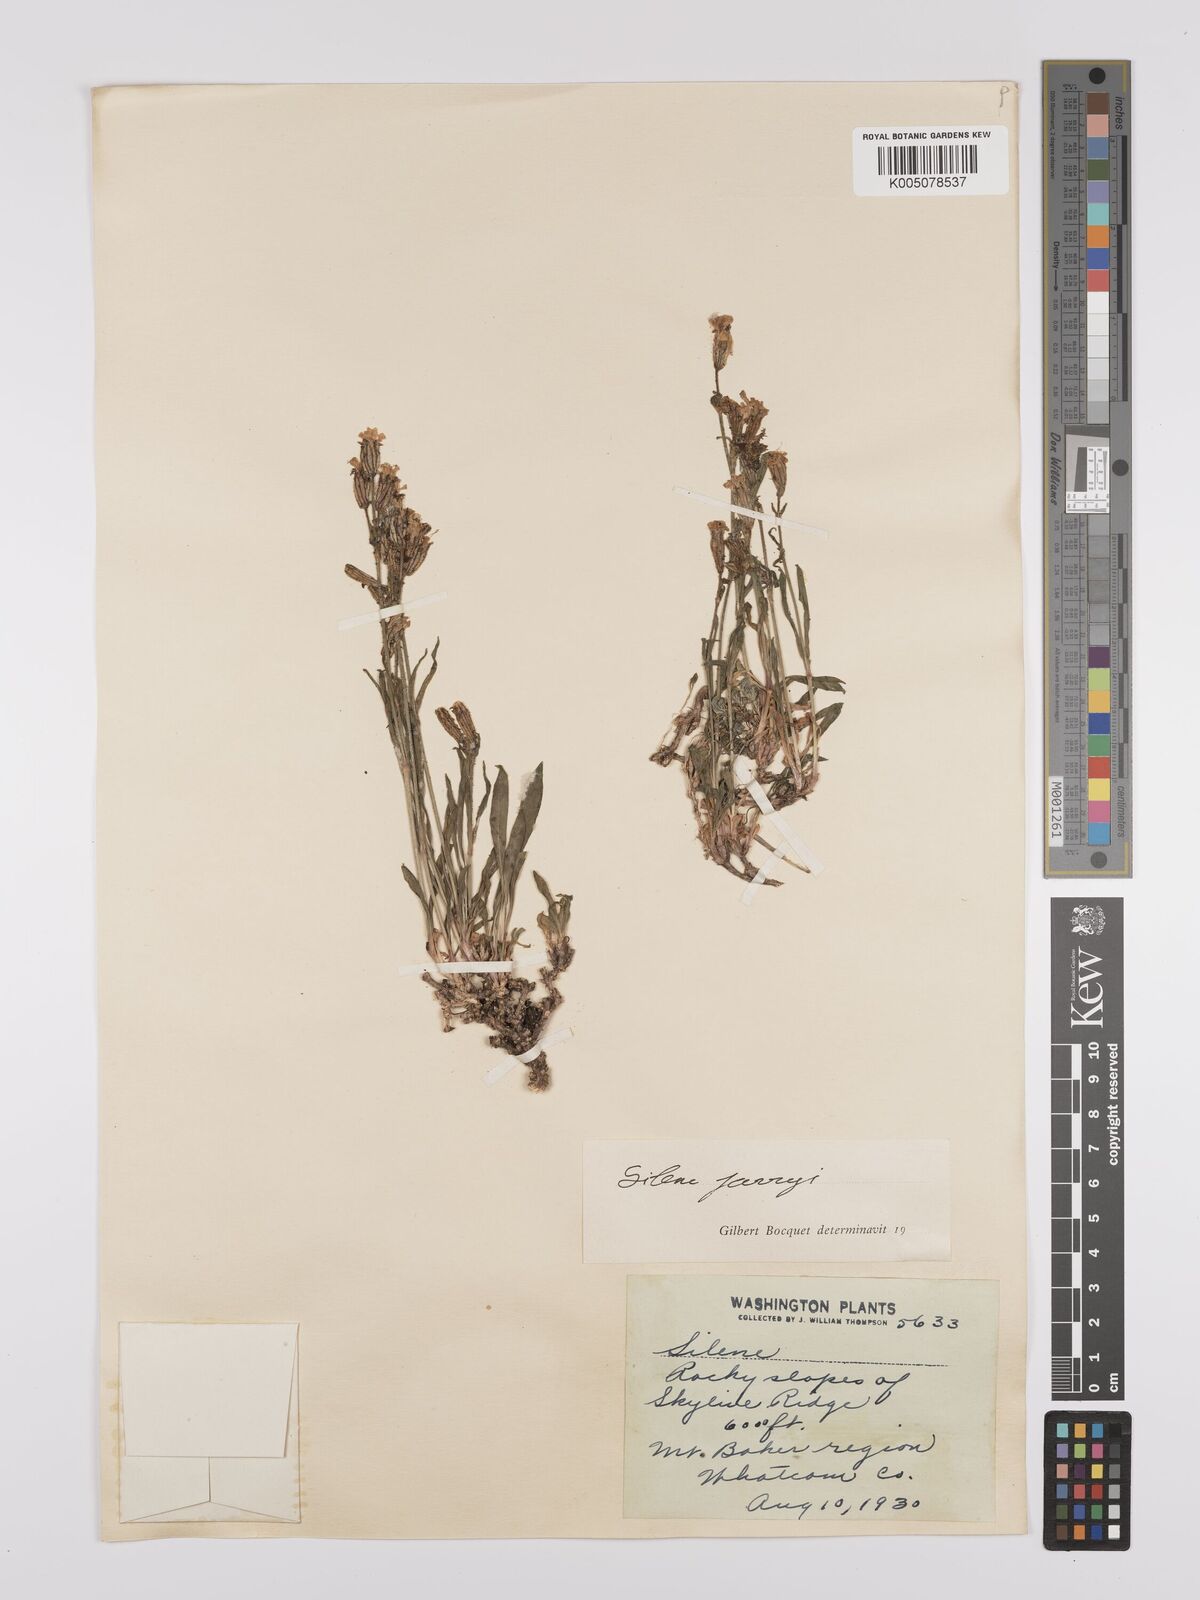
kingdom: Plantae
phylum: Tracheophyta
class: Magnoliopsida
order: Caryophyllales
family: Caryophyllaceae
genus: Silene
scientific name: Silene parryi
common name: Parry's campion
